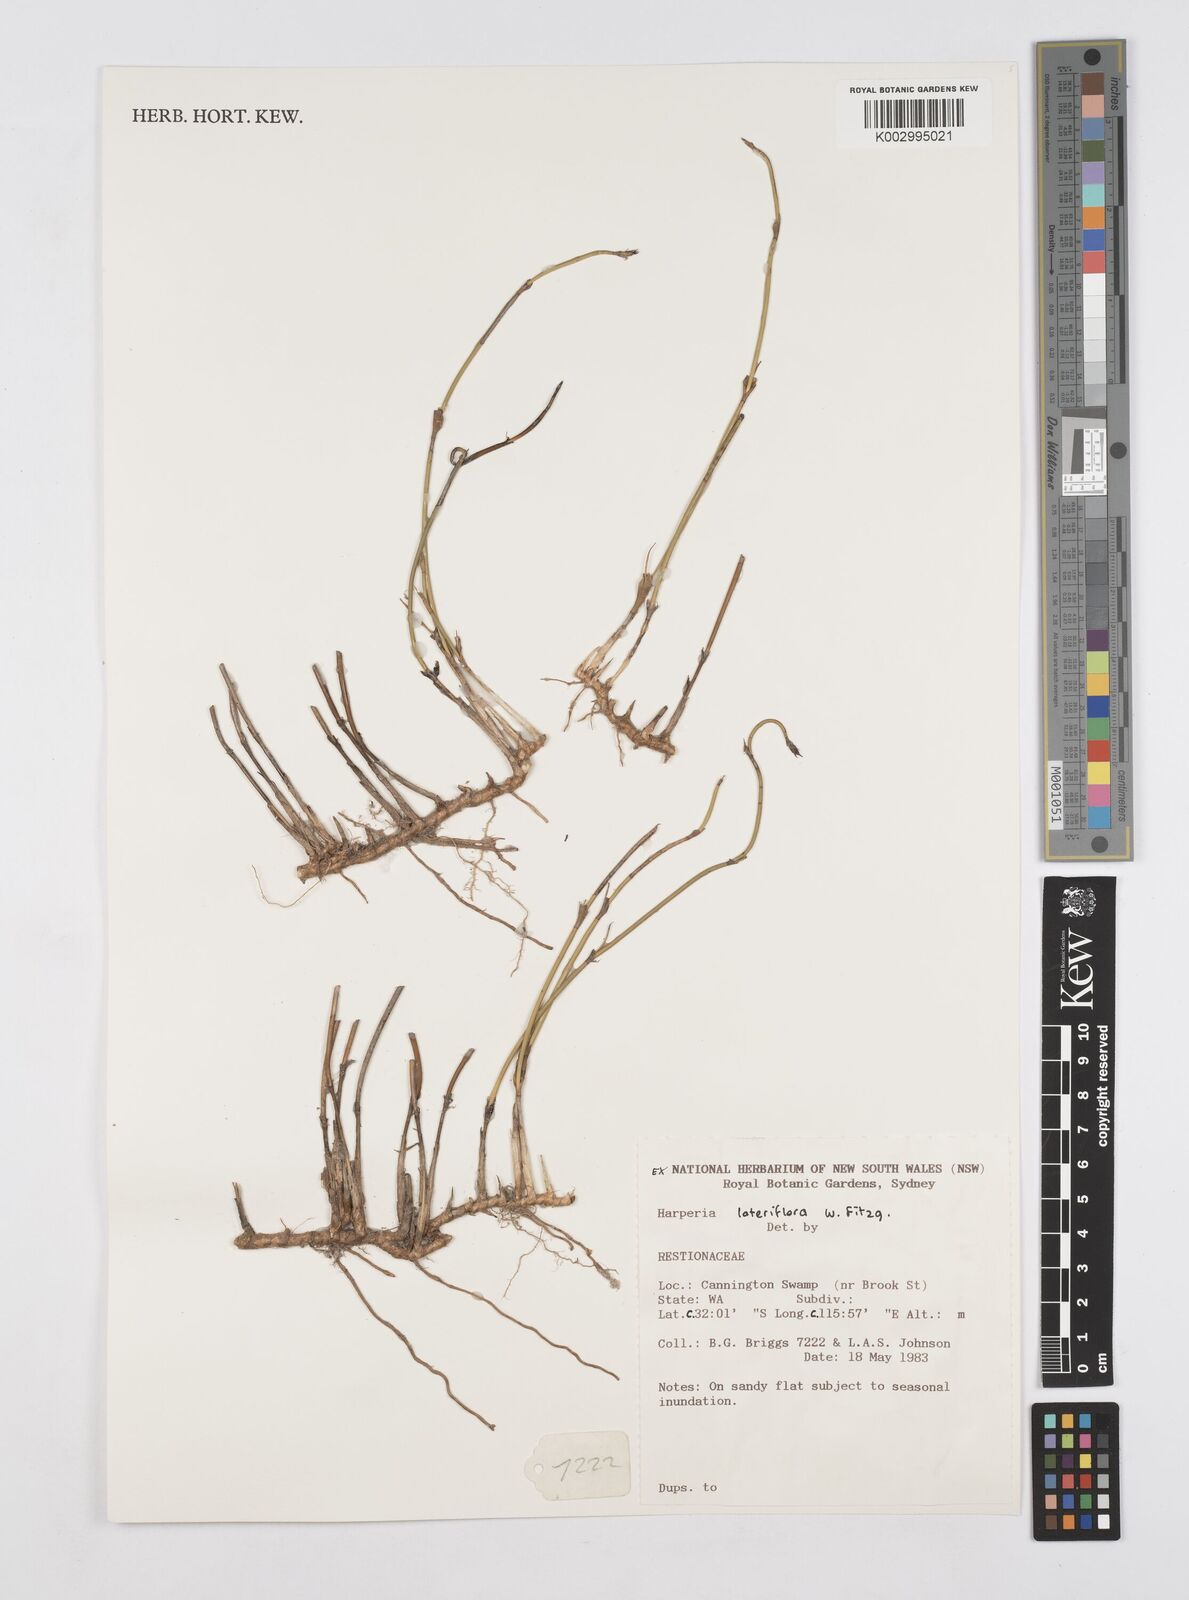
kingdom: Plantae
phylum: Tracheophyta
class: Liliopsida
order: Poales
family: Restionaceae
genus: Desmocladus
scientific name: Desmocladus lateriflorus
